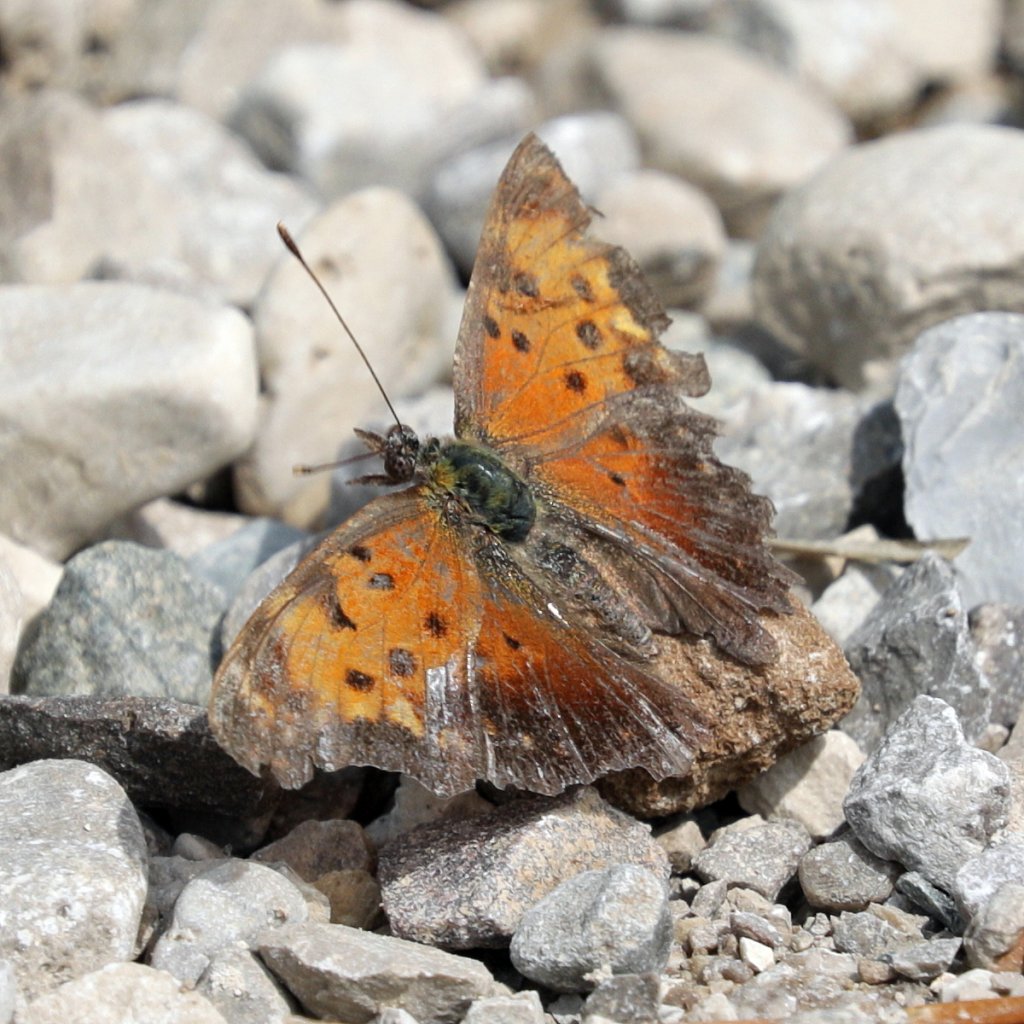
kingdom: Animalia
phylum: Arthropoda
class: Insecta
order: Lepidoptera
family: Nymphalidae
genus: Polygonia
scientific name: Polygonia progne
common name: Gray Comma
